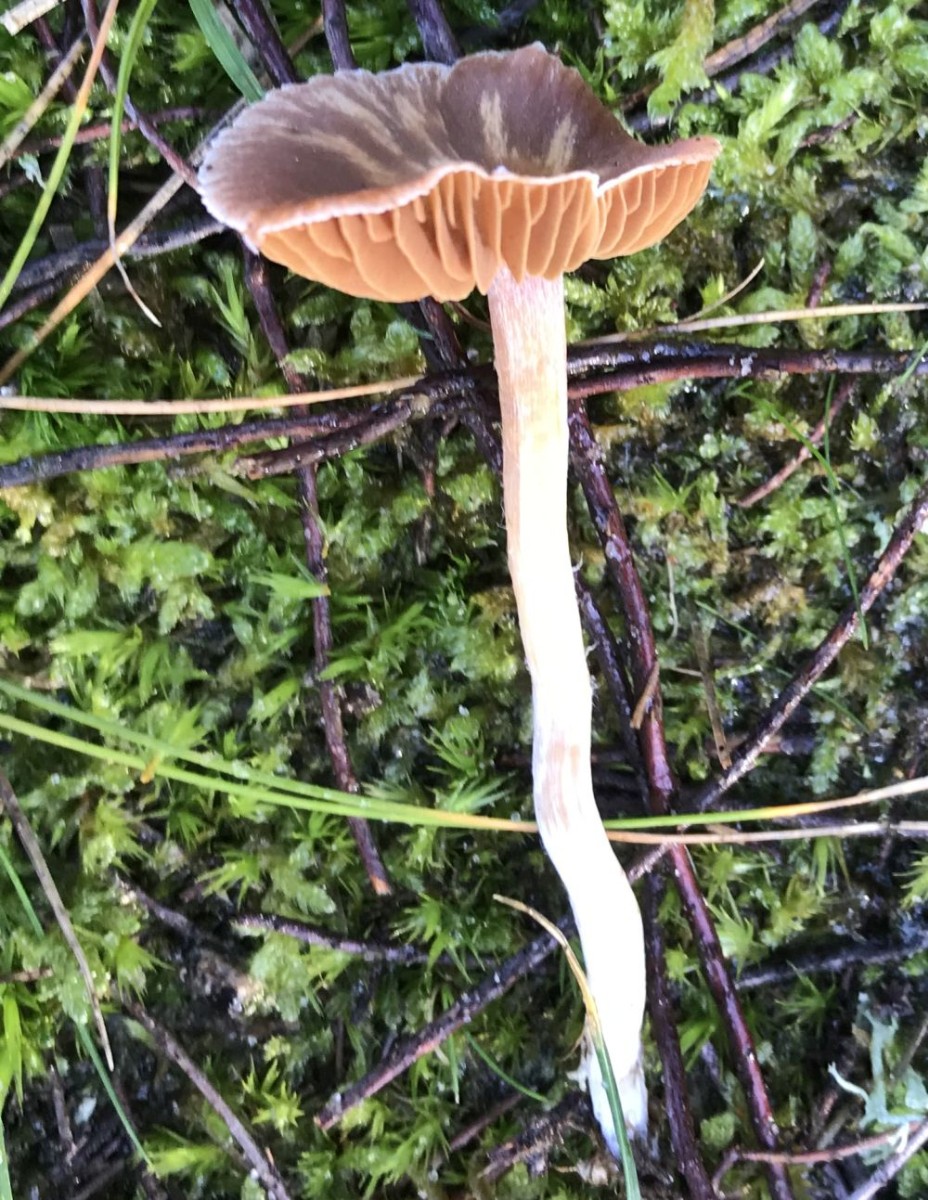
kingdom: Fungi
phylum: Basidiomycota
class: Agaricomycetes
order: Agaricales
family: Cortinariaceae
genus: Cortinarius
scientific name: Cortinarius
